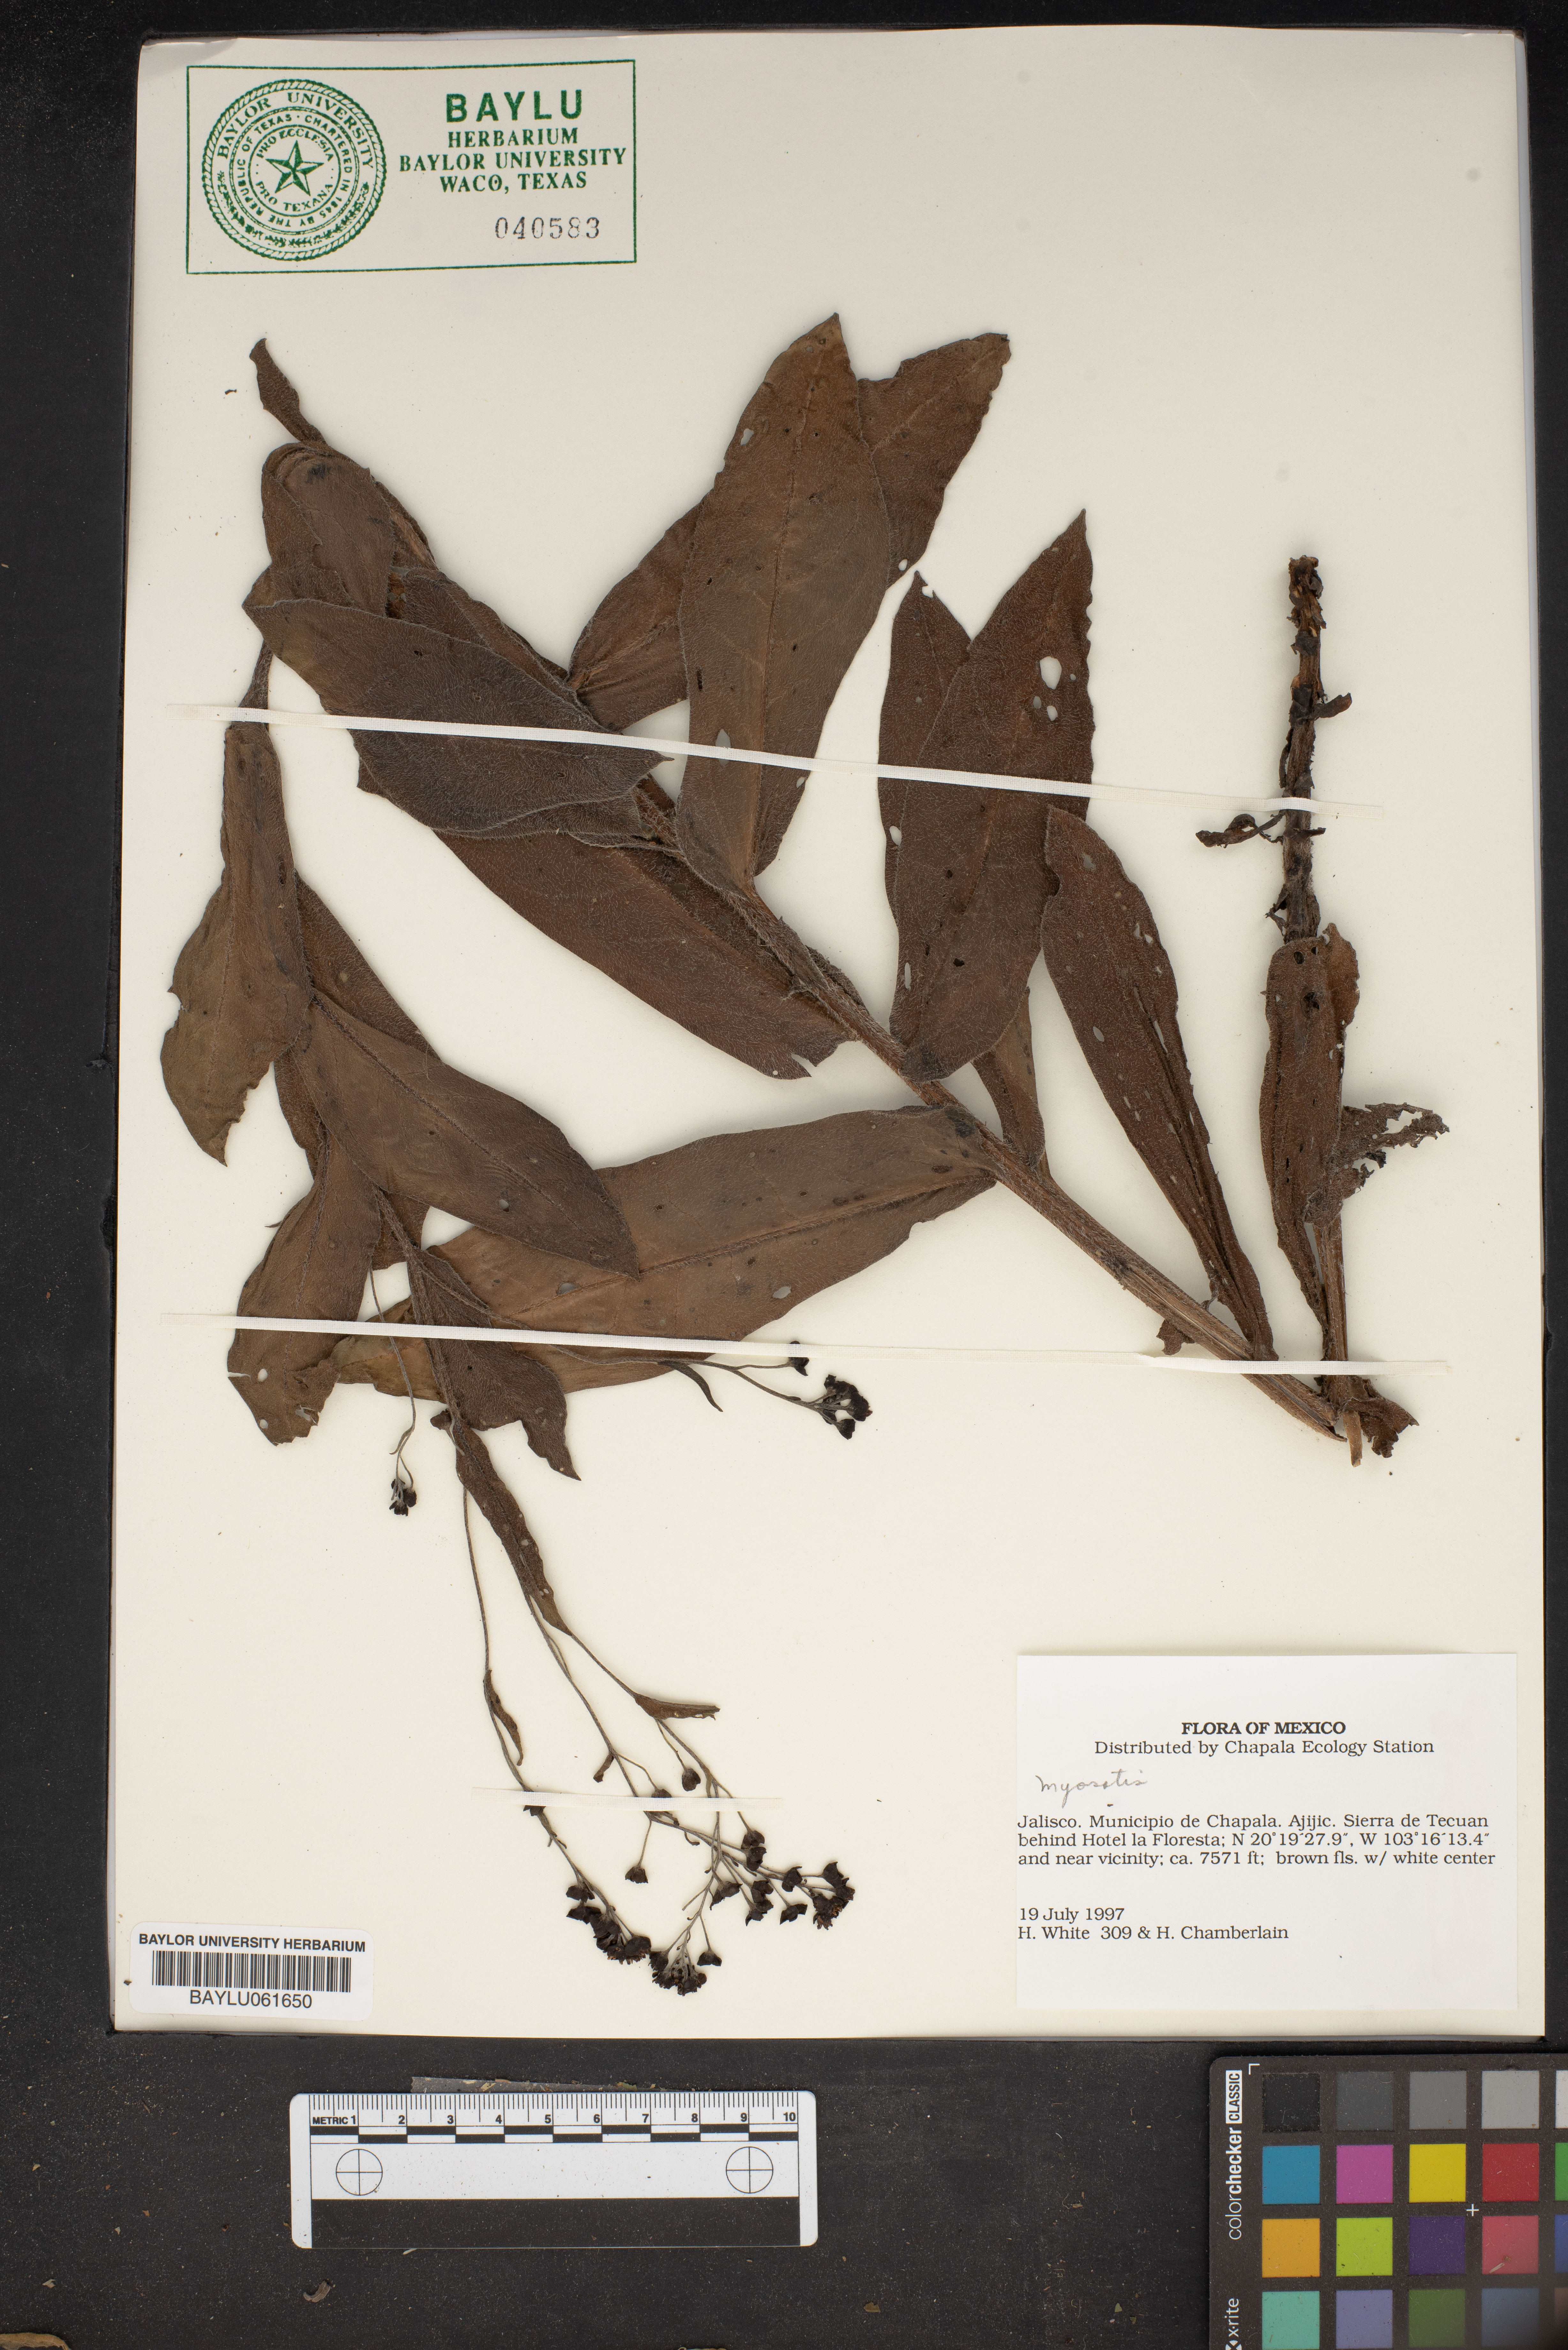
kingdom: Plantae
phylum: Tracheophyta
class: Magnoliopsida
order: Boraginales
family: Boraginaceae
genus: Myosotis
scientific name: Myosotis
